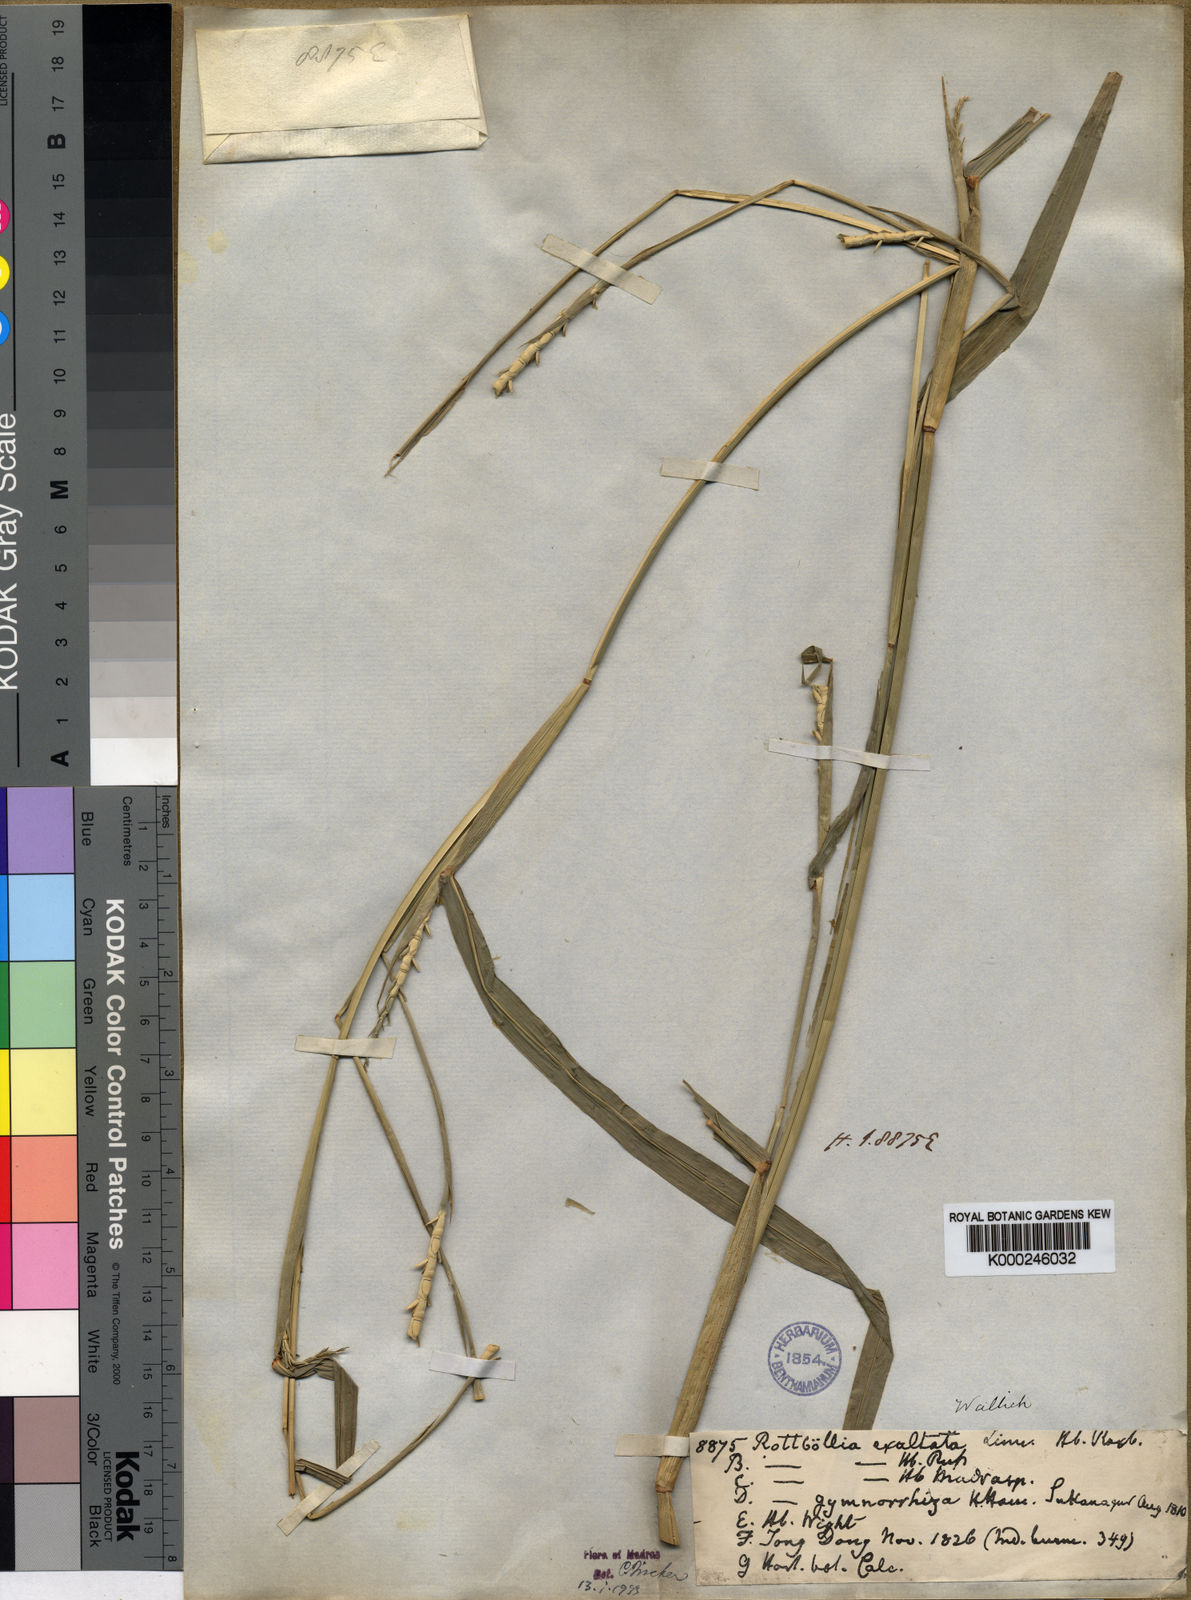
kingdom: Plantae
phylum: Tracheophyta
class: Liliopsida
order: Poales
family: Poaceae
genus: Rottboellia
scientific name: Rottboellia cochinchinensis
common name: Itchgrass
